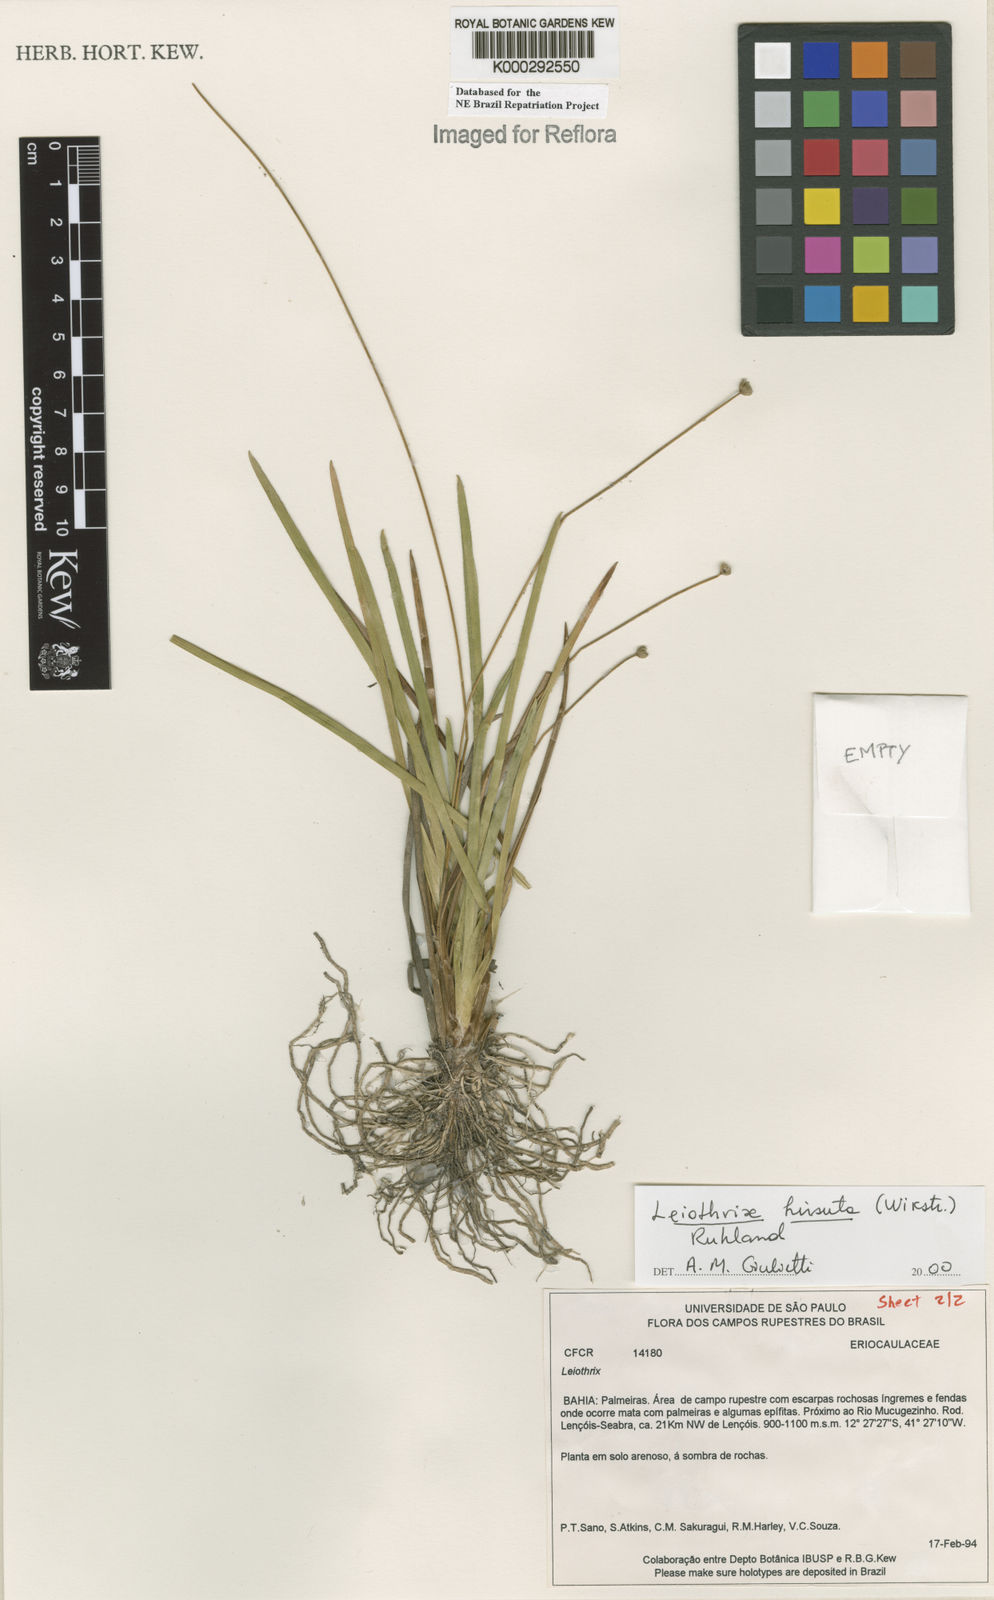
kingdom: Plantae
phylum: Tracheophyta
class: Liliopsida
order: Poales
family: Eriocaulaceae
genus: Leiothrix
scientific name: Leiothrix hirsuta
